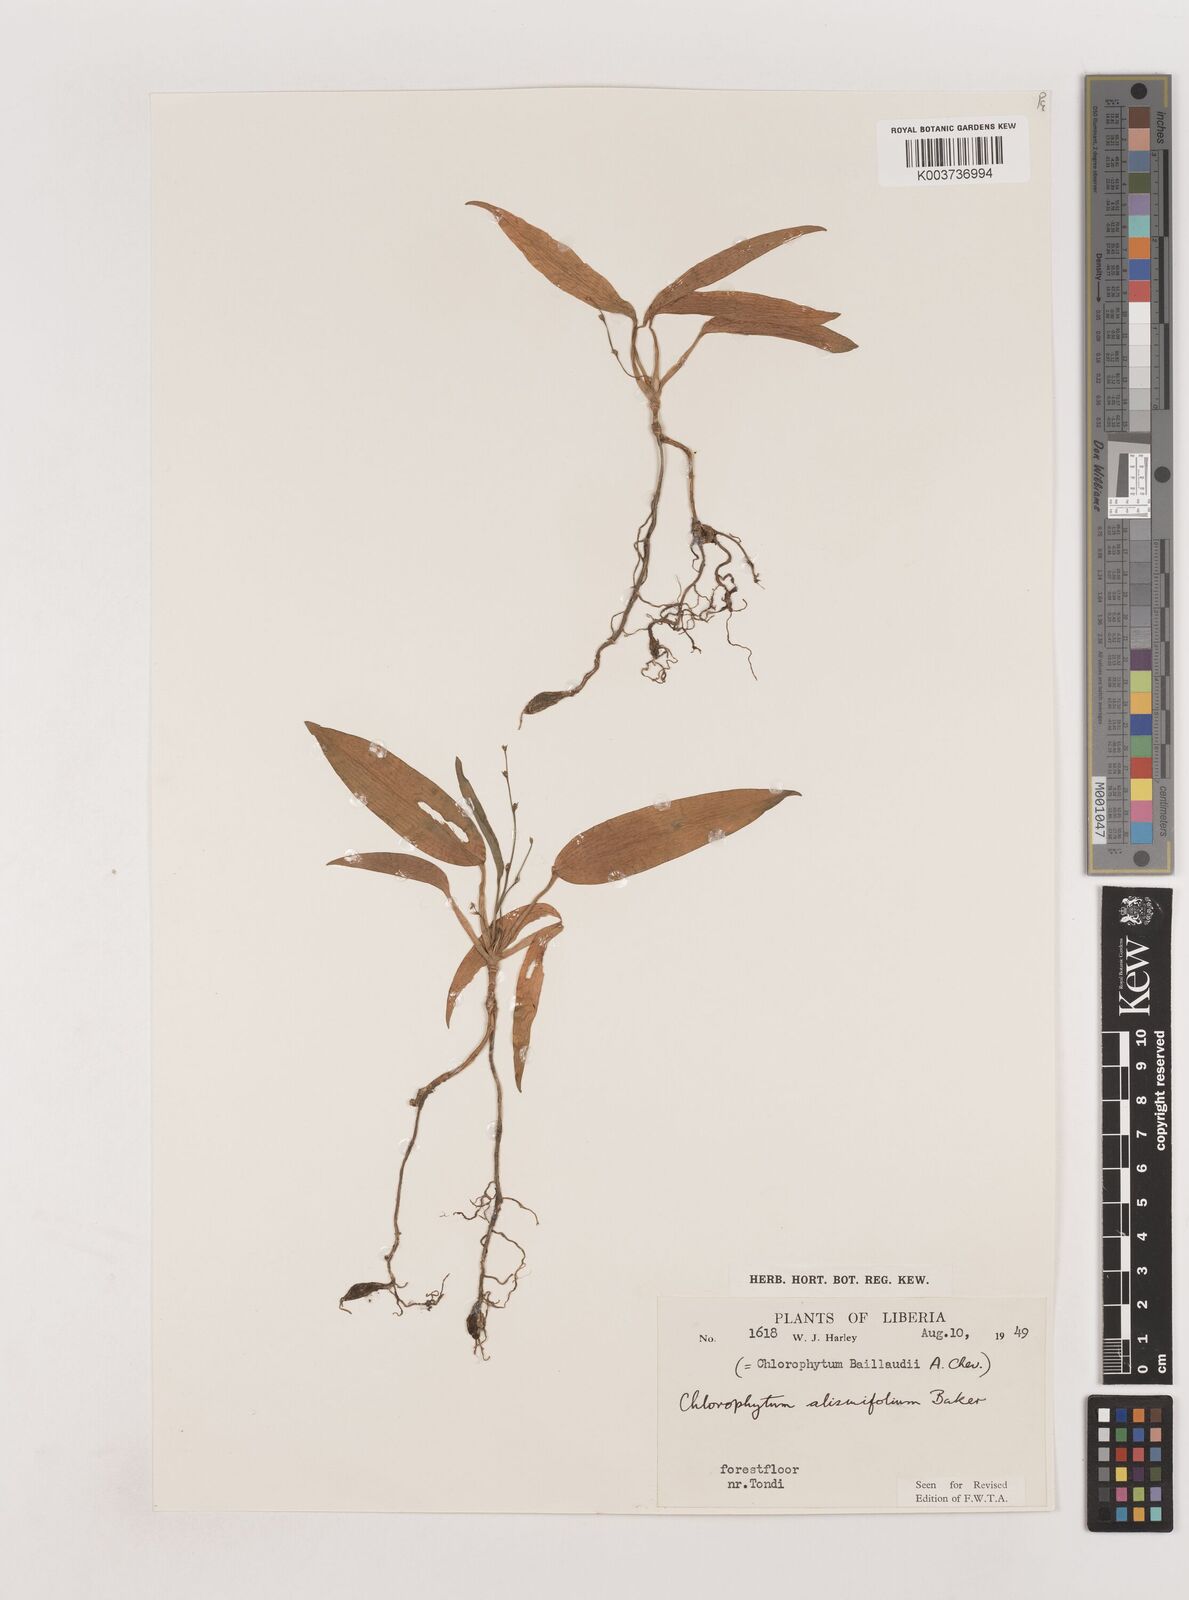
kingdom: Plantae
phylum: Tracheophyta
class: Liliopsida
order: Asparagales
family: Asparagaceae
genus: Chlorophytum
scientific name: Chlorophytum alismifolium
